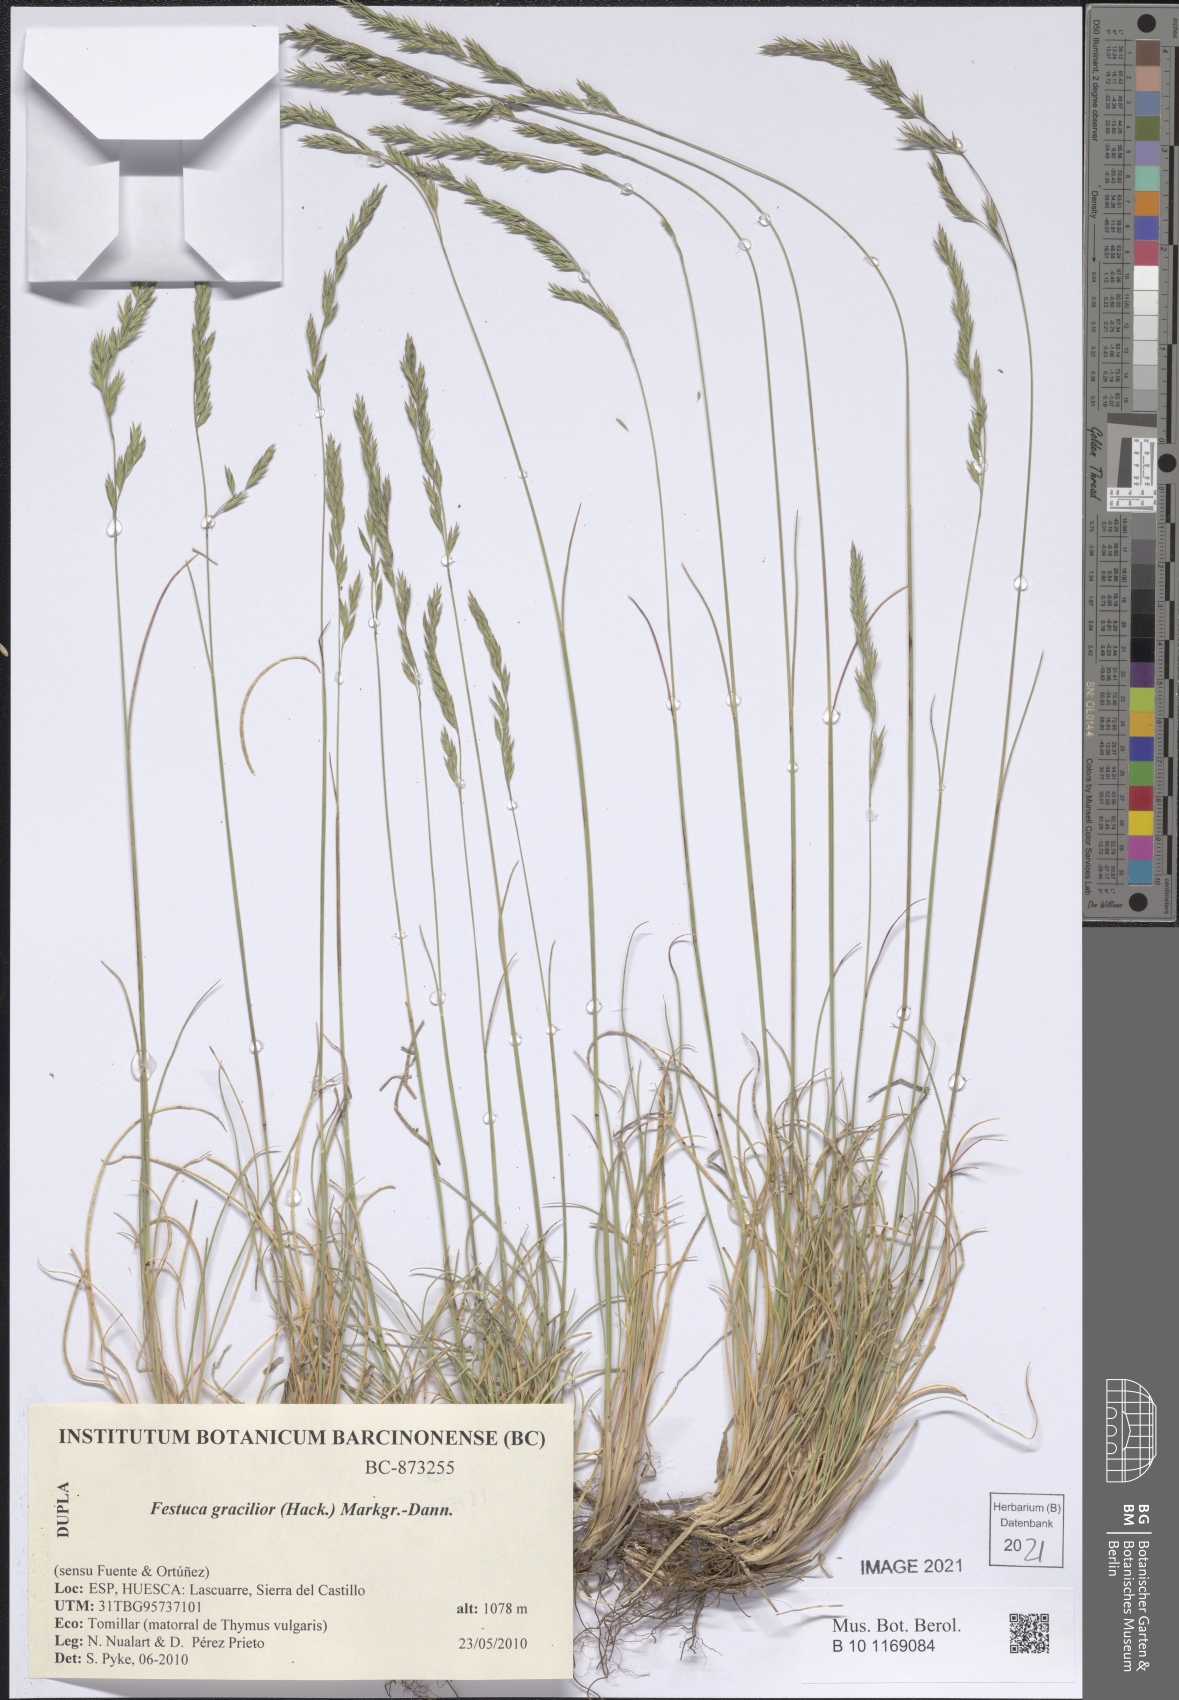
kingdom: Plantae
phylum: Tracheophyta
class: Liliopsida
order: Poales
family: Poaceae
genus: Festuca
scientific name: Festuca gracilior
